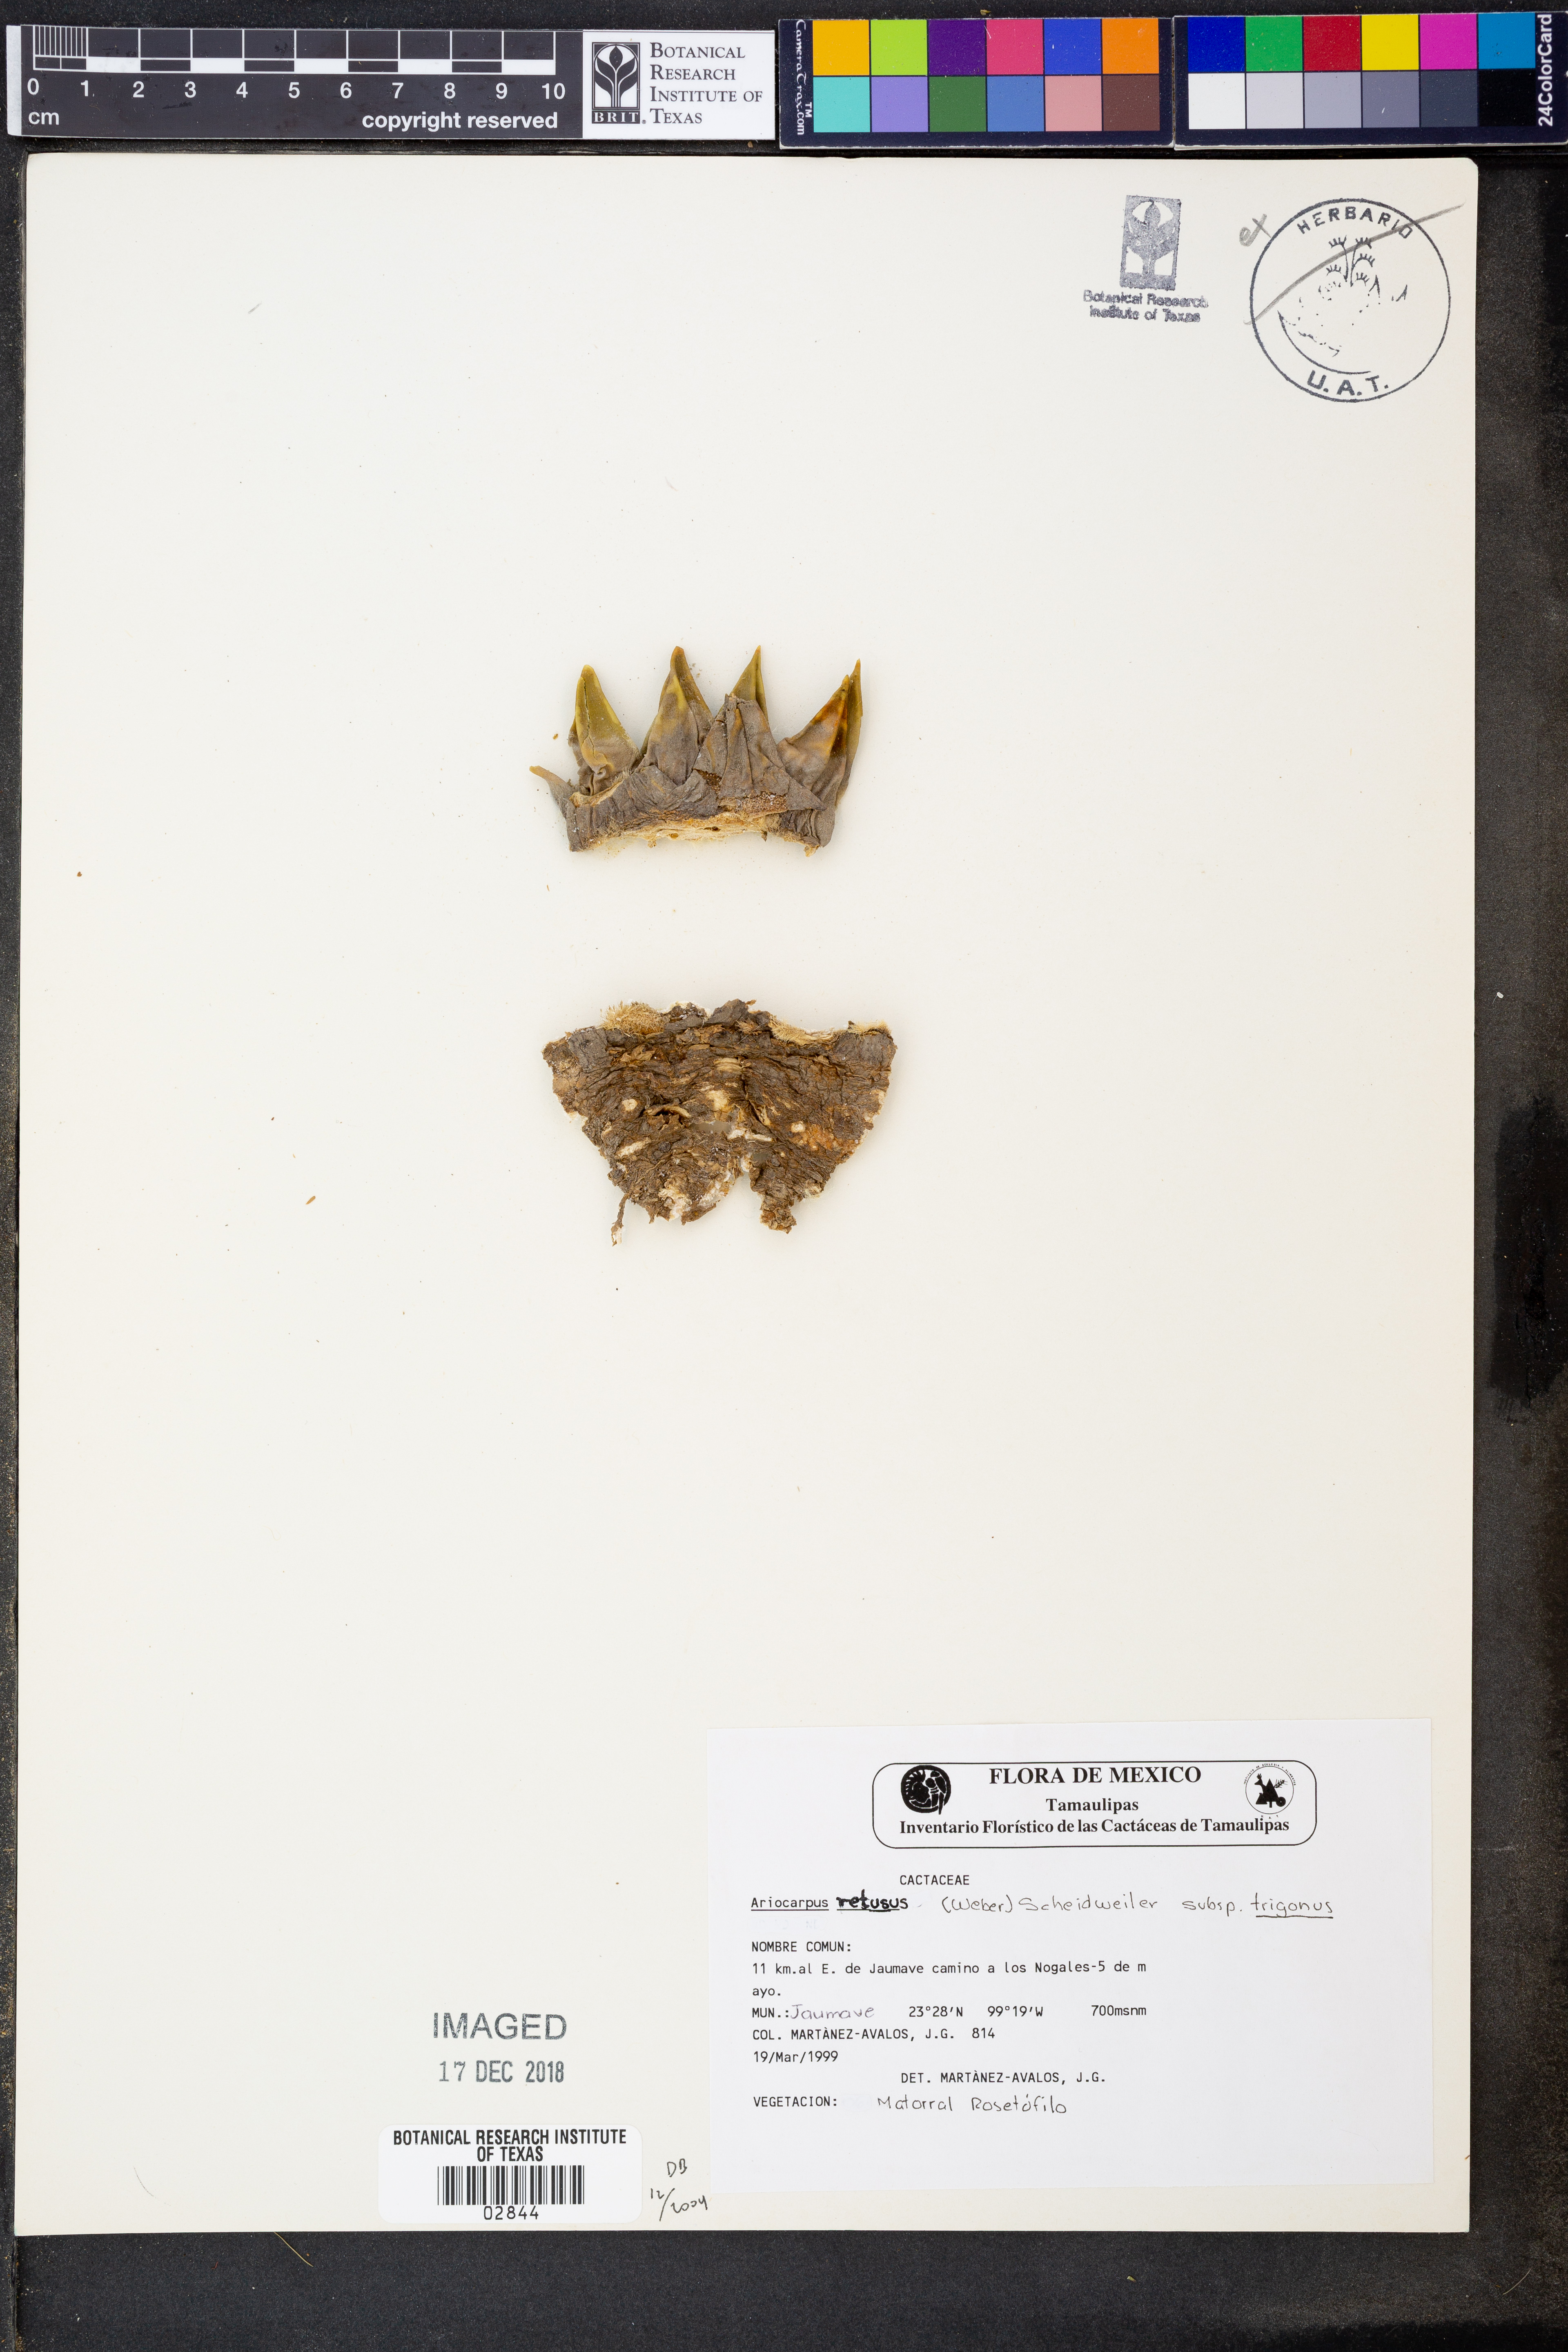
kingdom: Plantae
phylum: Tracheophyta
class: Magnoliopsida
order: Caryophyllales
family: Cactaceae
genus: Ariocarpus
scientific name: Ariocarpus trigonus
